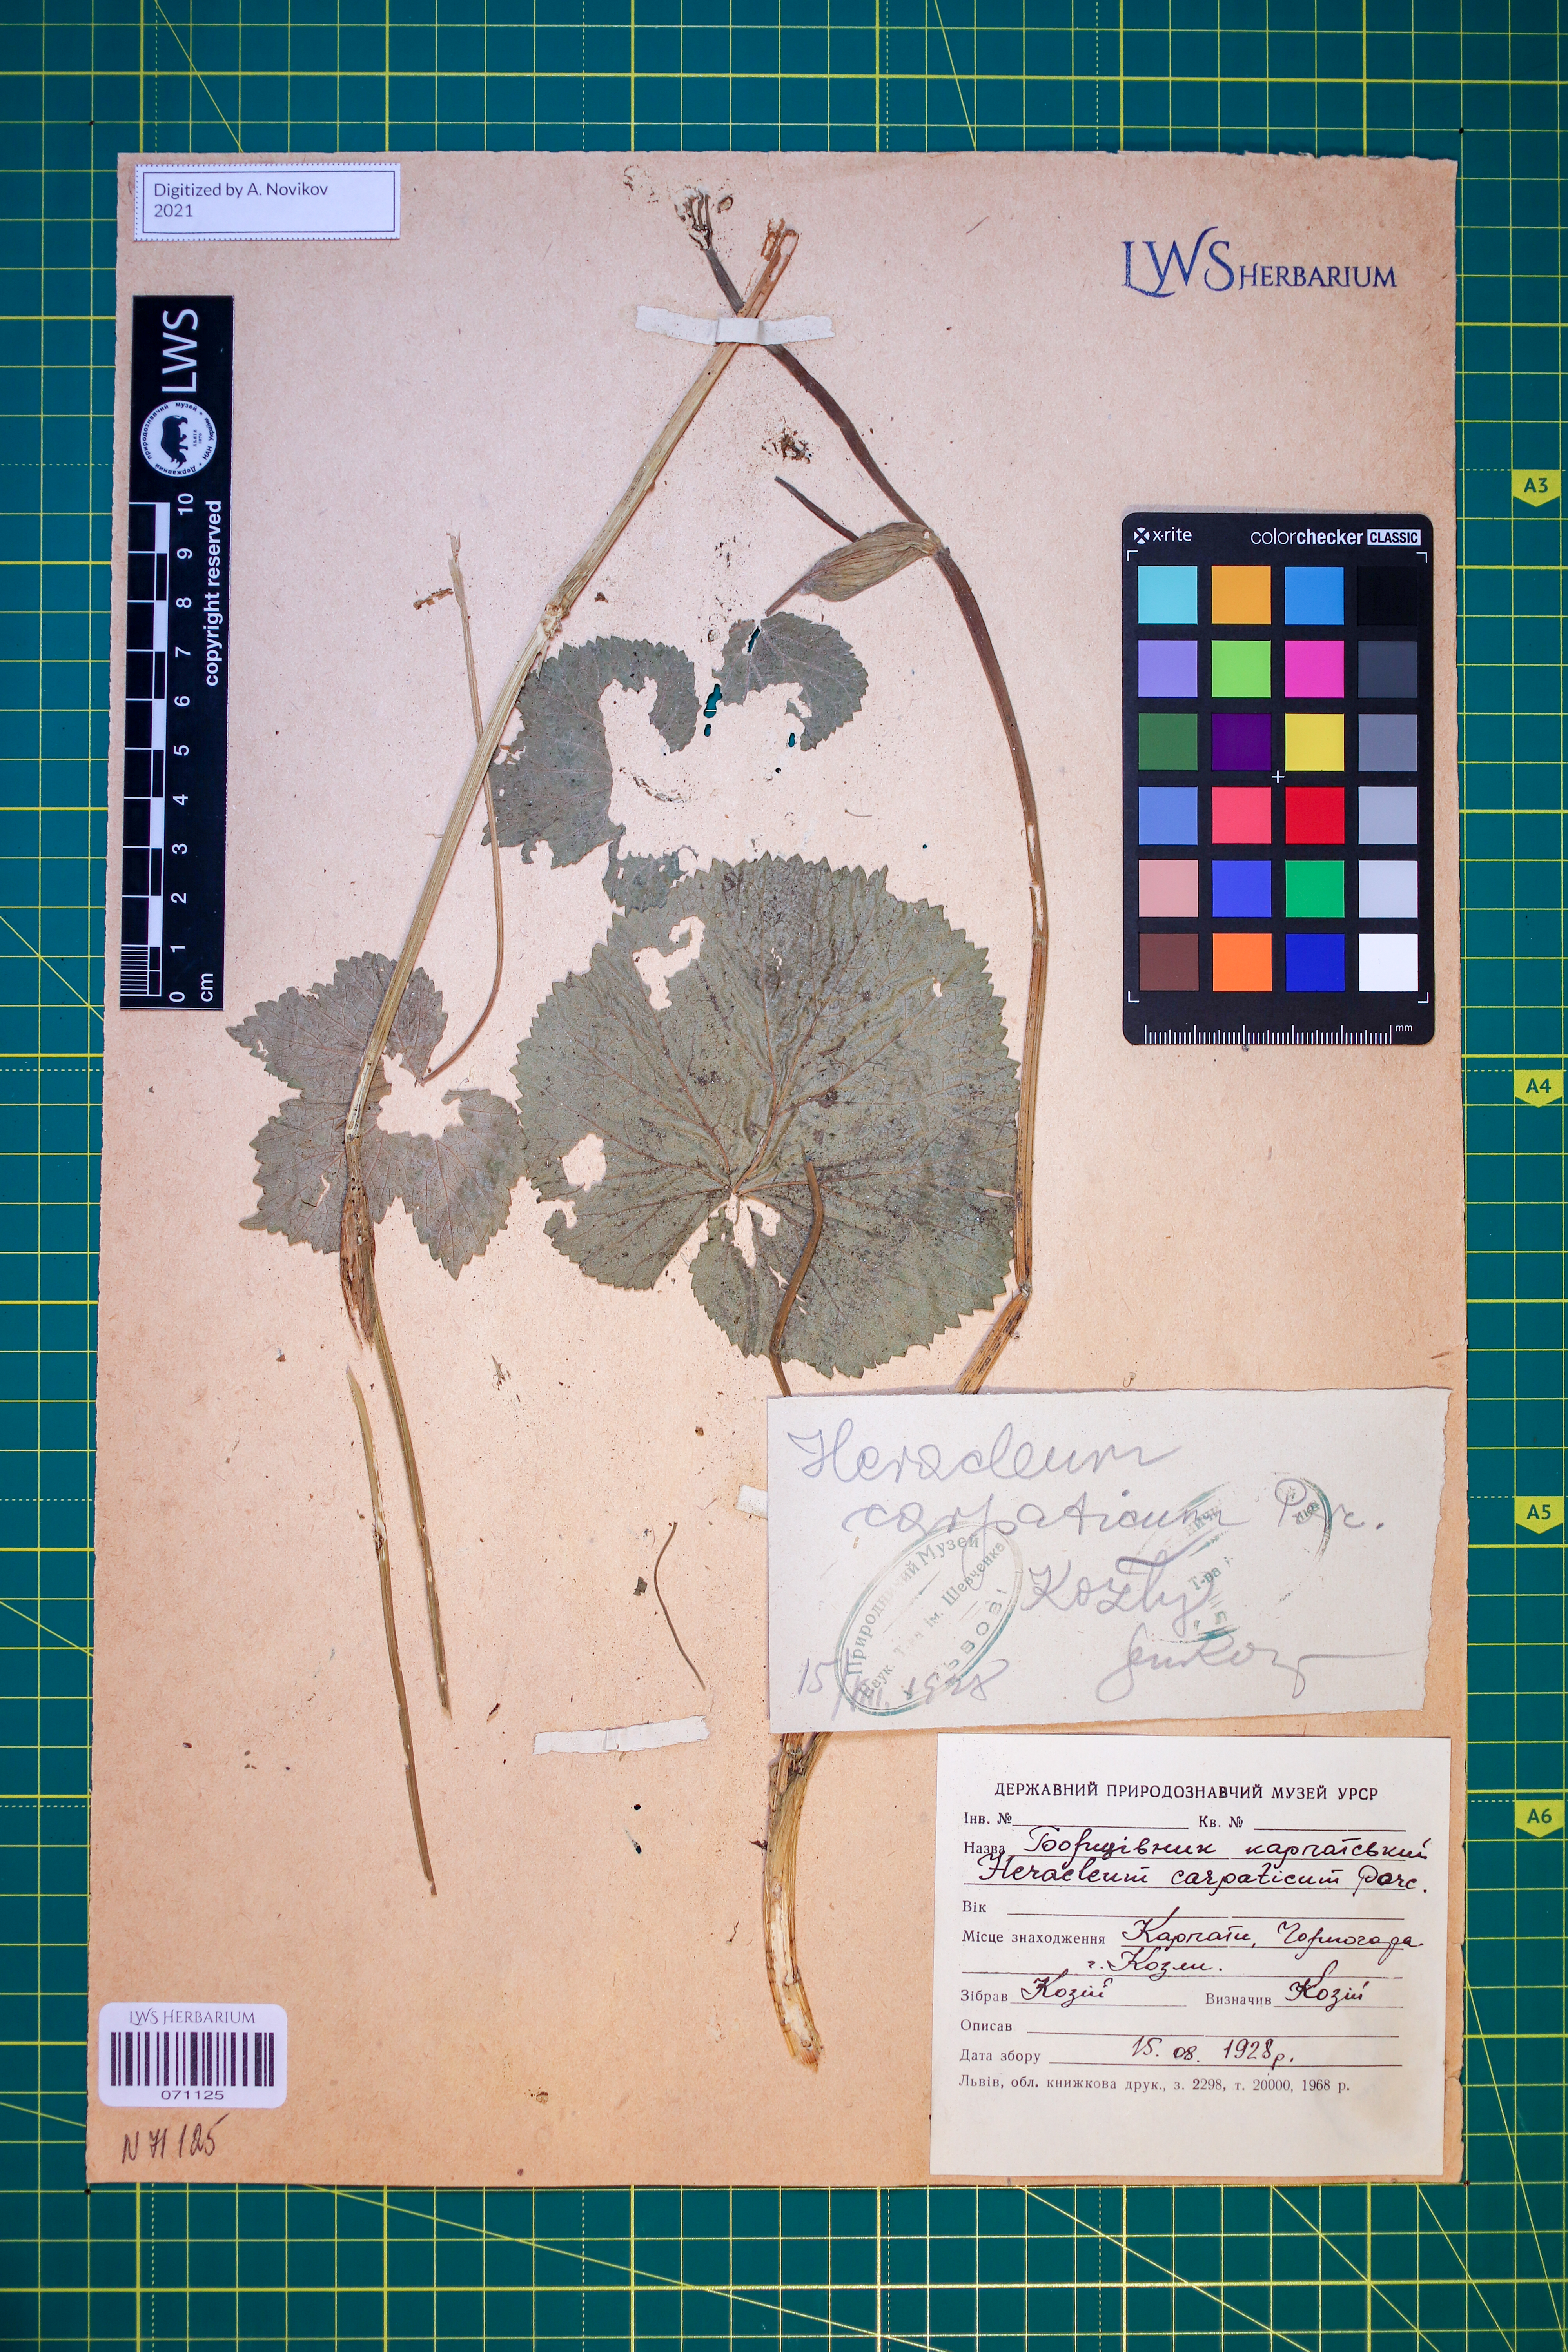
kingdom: Plantae
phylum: Tracheophyta
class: Magnoliopsida
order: Apiales
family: Apiaceae
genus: Heracleum
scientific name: Heracleum carpaticum
